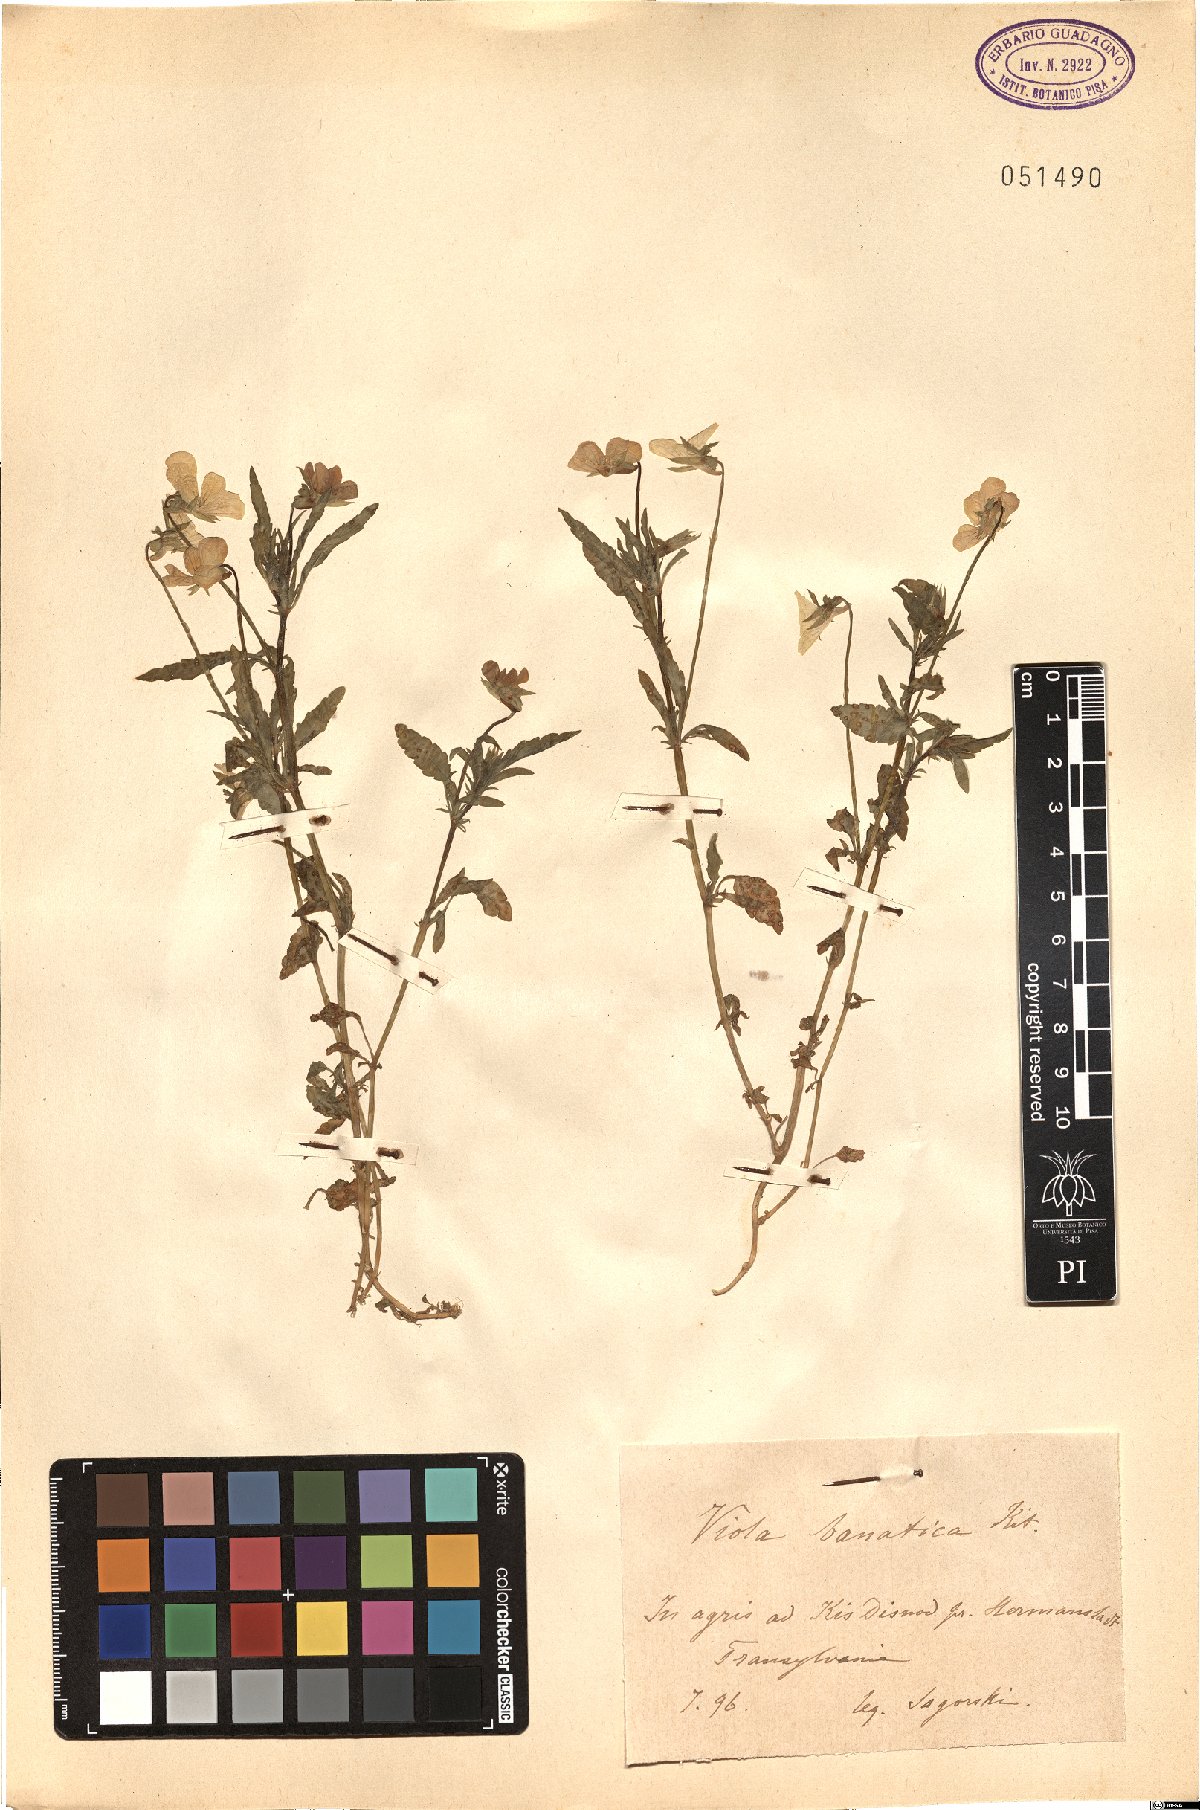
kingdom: Plantae
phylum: Tracheophyta
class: Magnoliopsida
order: Malpighiales
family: Violaceae
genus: Viola
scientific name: Viola tricolor
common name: Pansy
